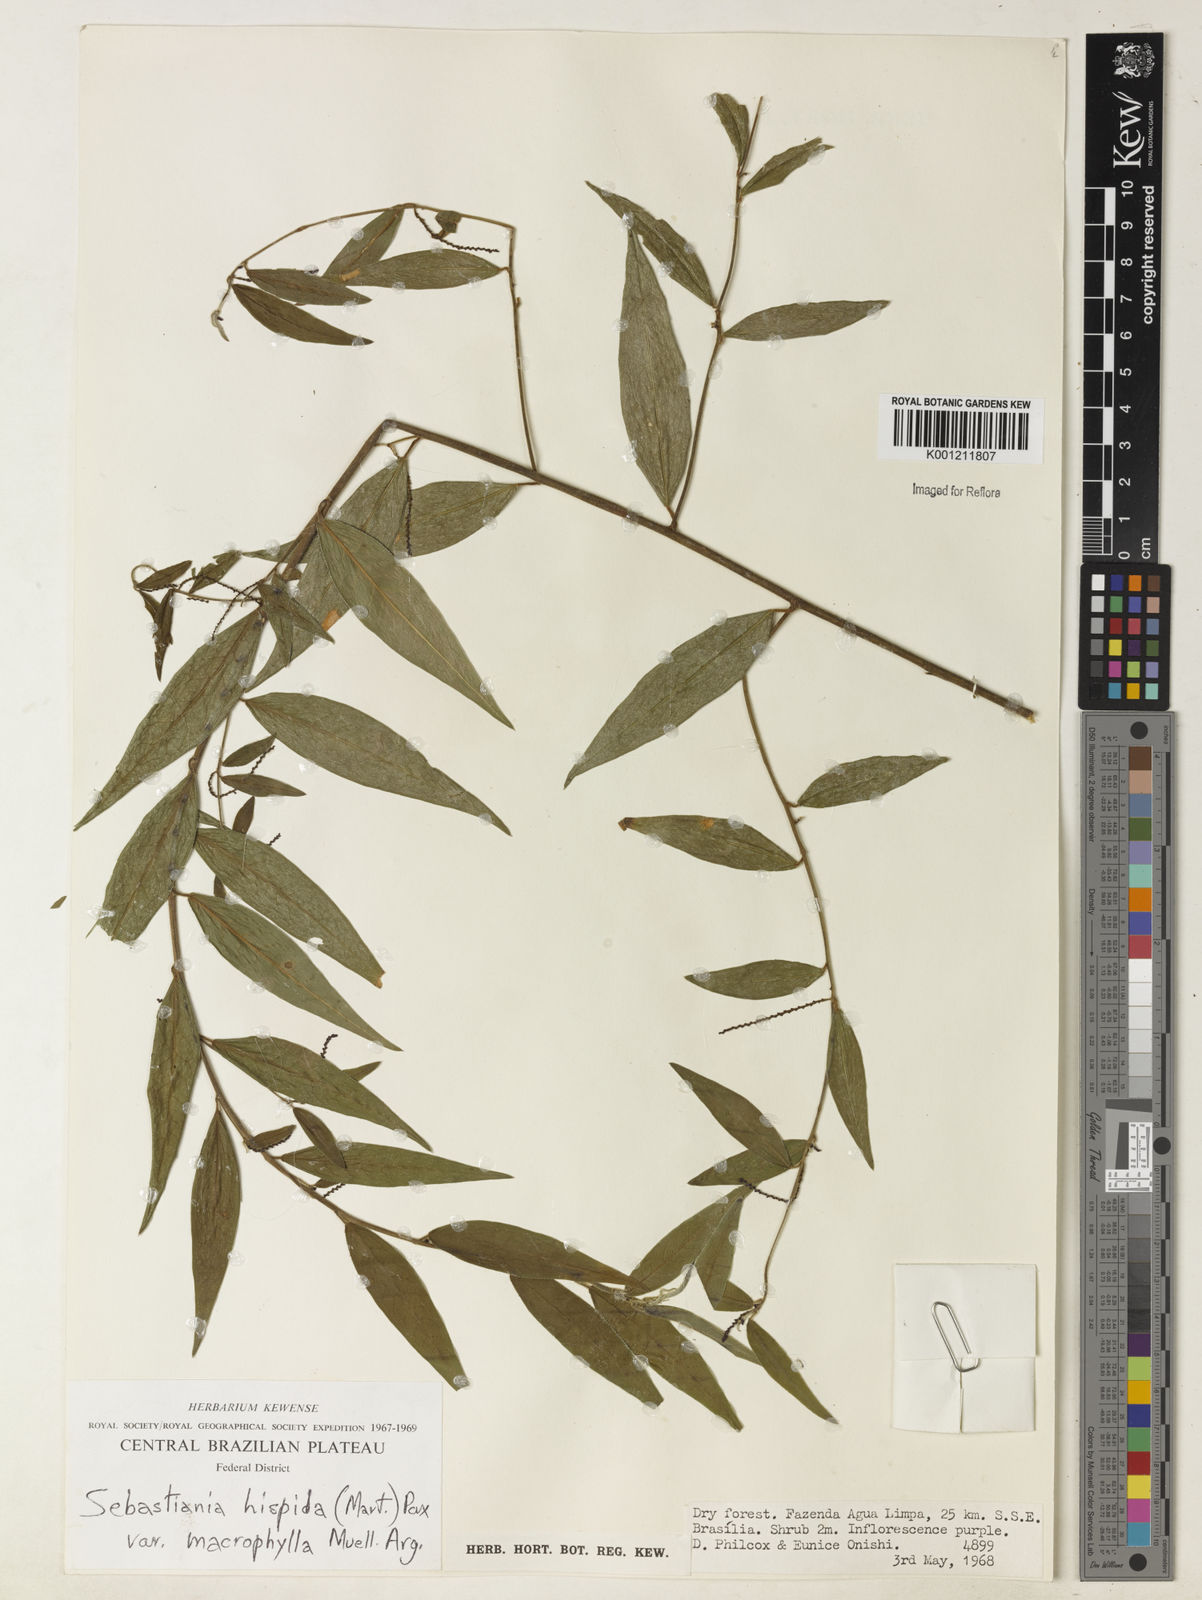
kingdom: Plantae
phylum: Tracheophyta
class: Magnoliopsida
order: Malpighiales
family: Euphorbiaceae
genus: Microstachys
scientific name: Microstachys hispida
